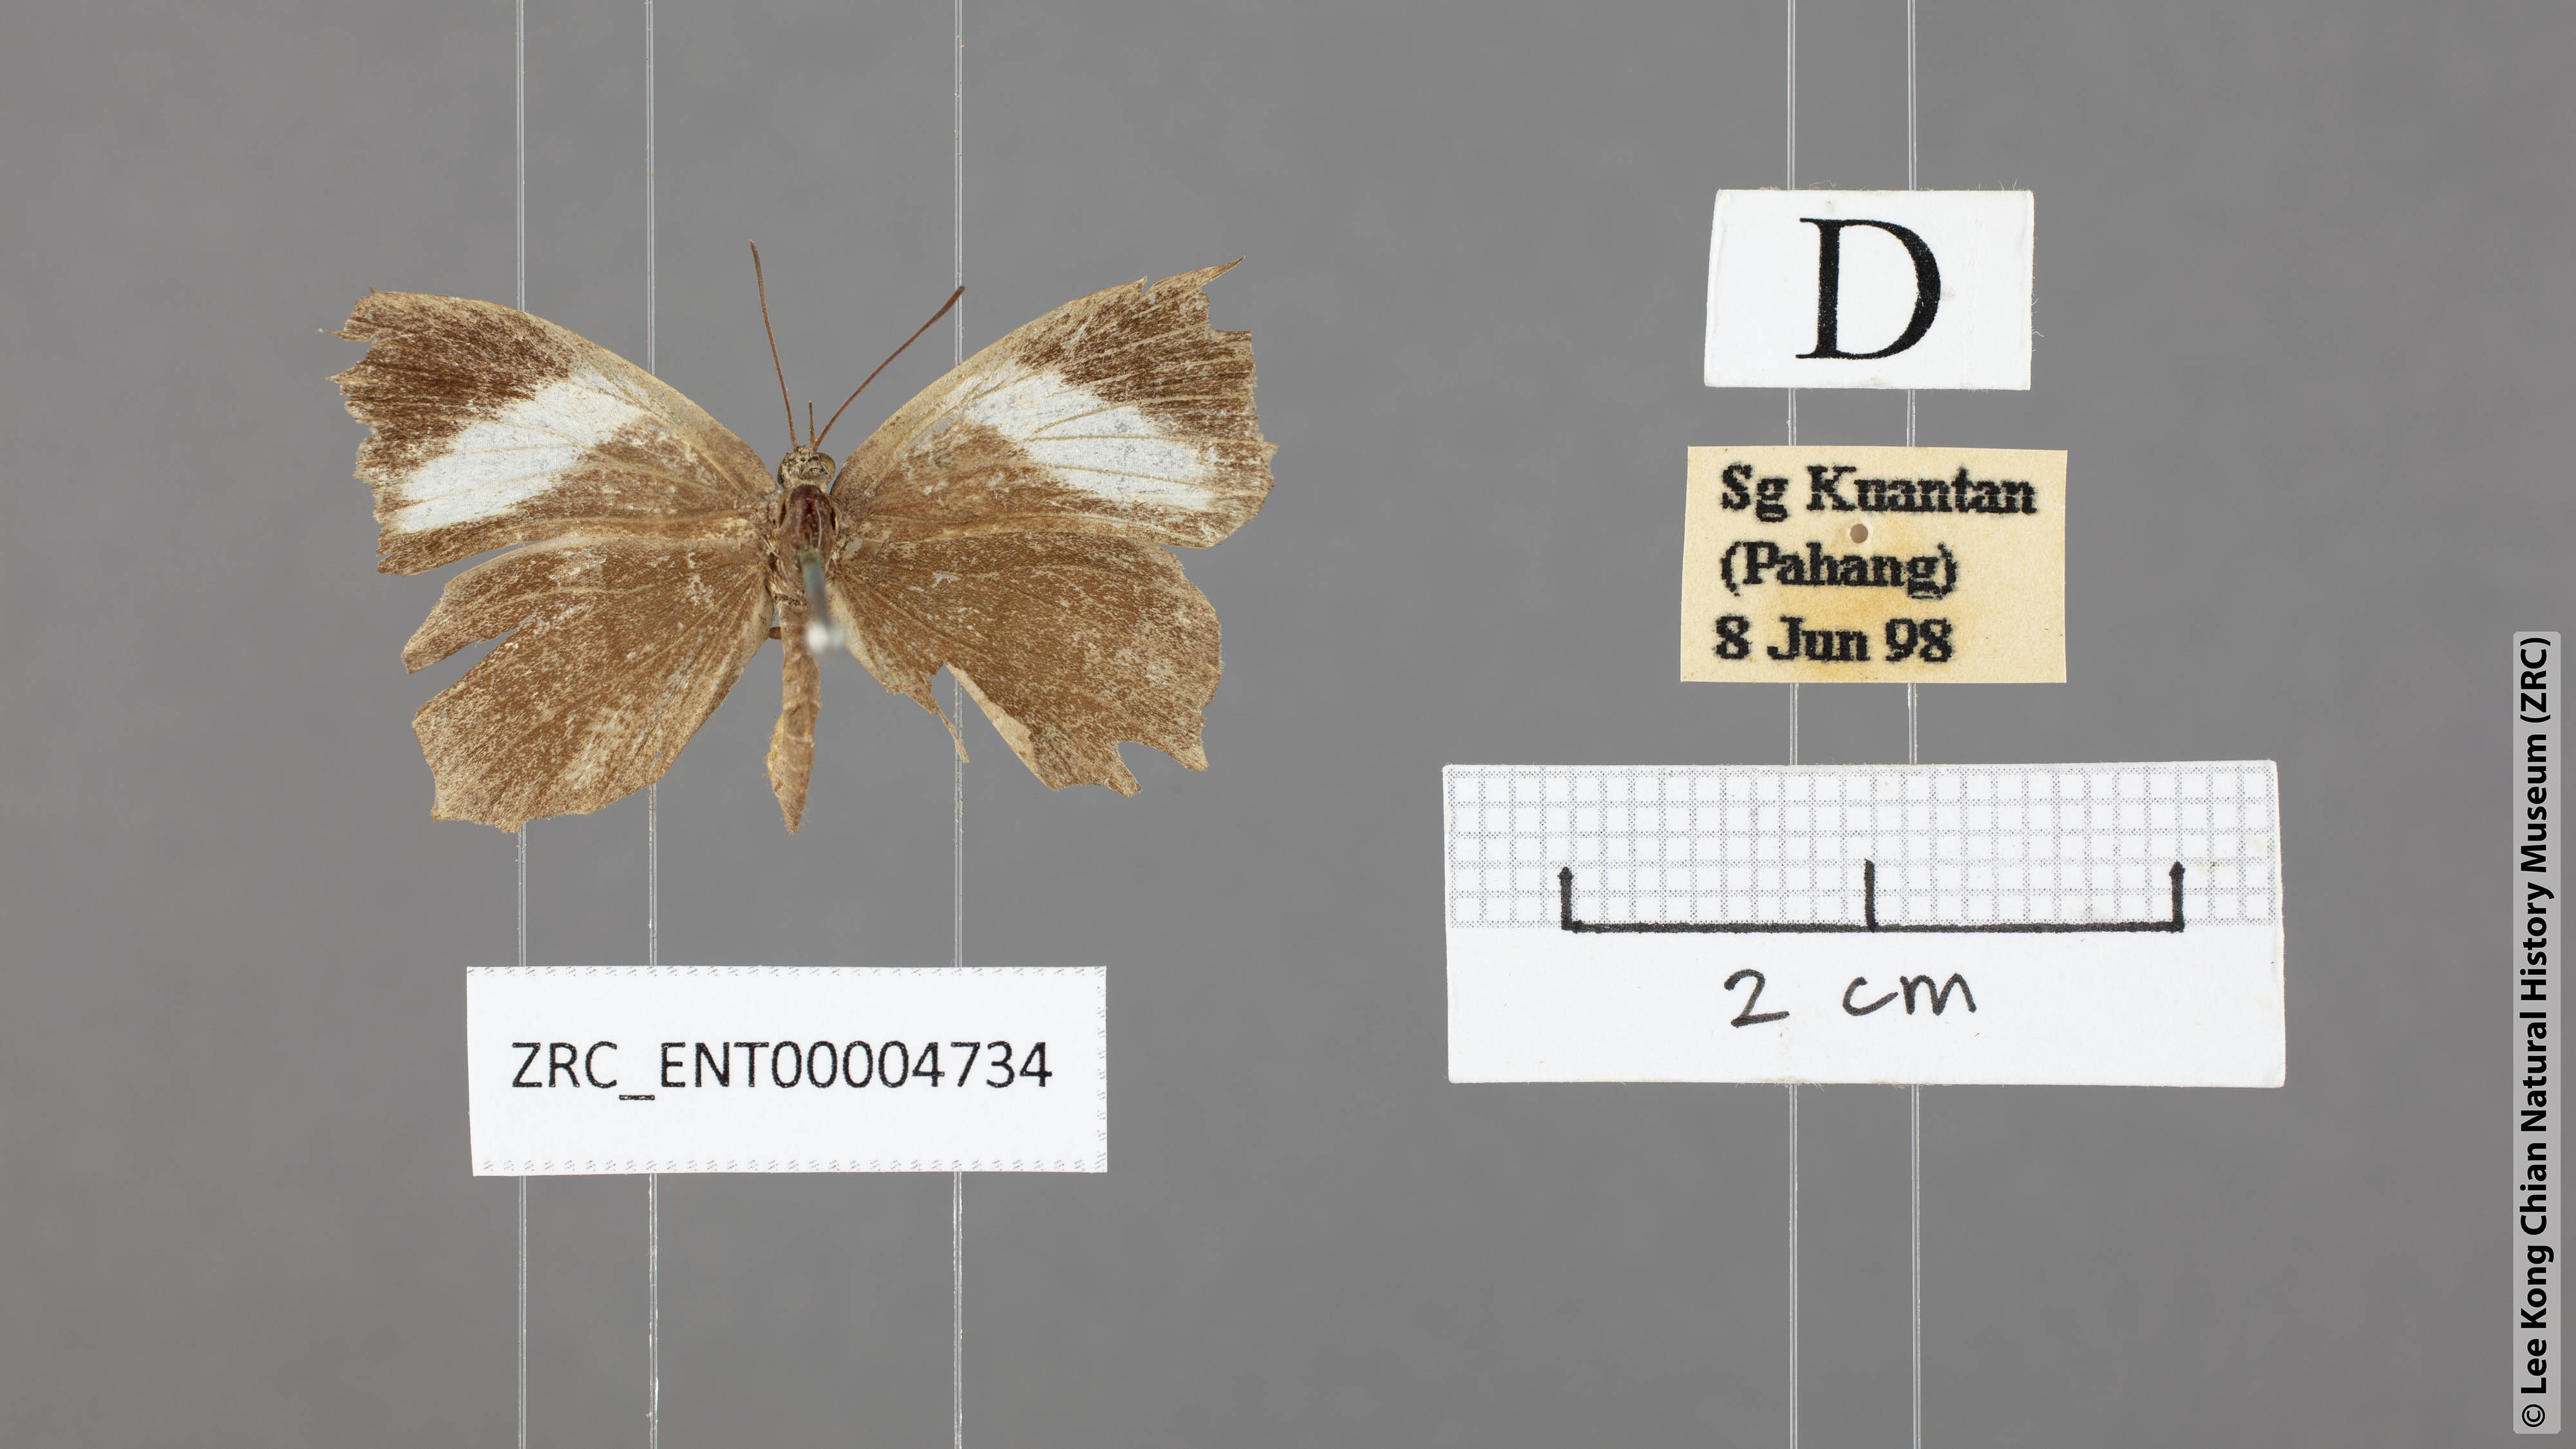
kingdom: Animalia
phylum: Arthropoda
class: Insecta
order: Lepidoptera
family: Lycaenidae
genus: Miletus
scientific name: Miletus gopara
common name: Round-banded brownie
